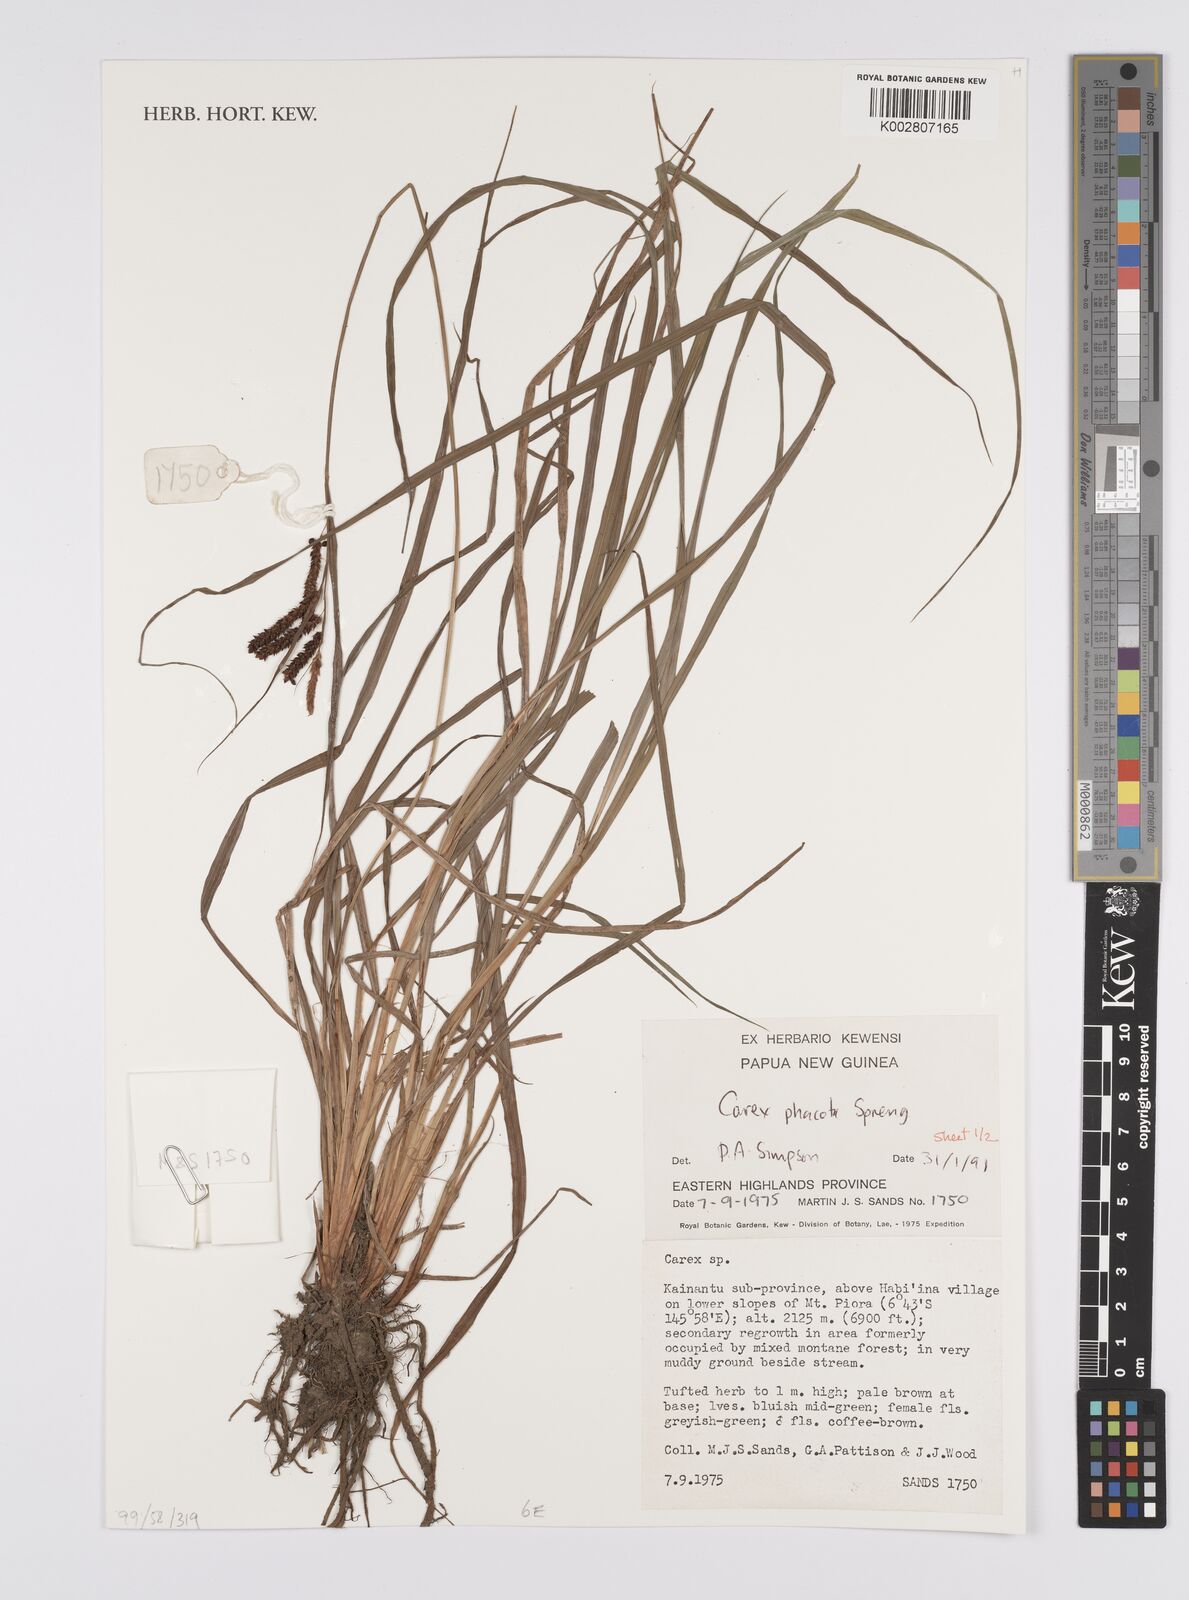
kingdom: Plantae
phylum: Tracheophyta
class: Liliopsida
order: Poales
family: Cyperaceae
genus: Carex
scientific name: Carex phacota
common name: Lakeshore sedge
